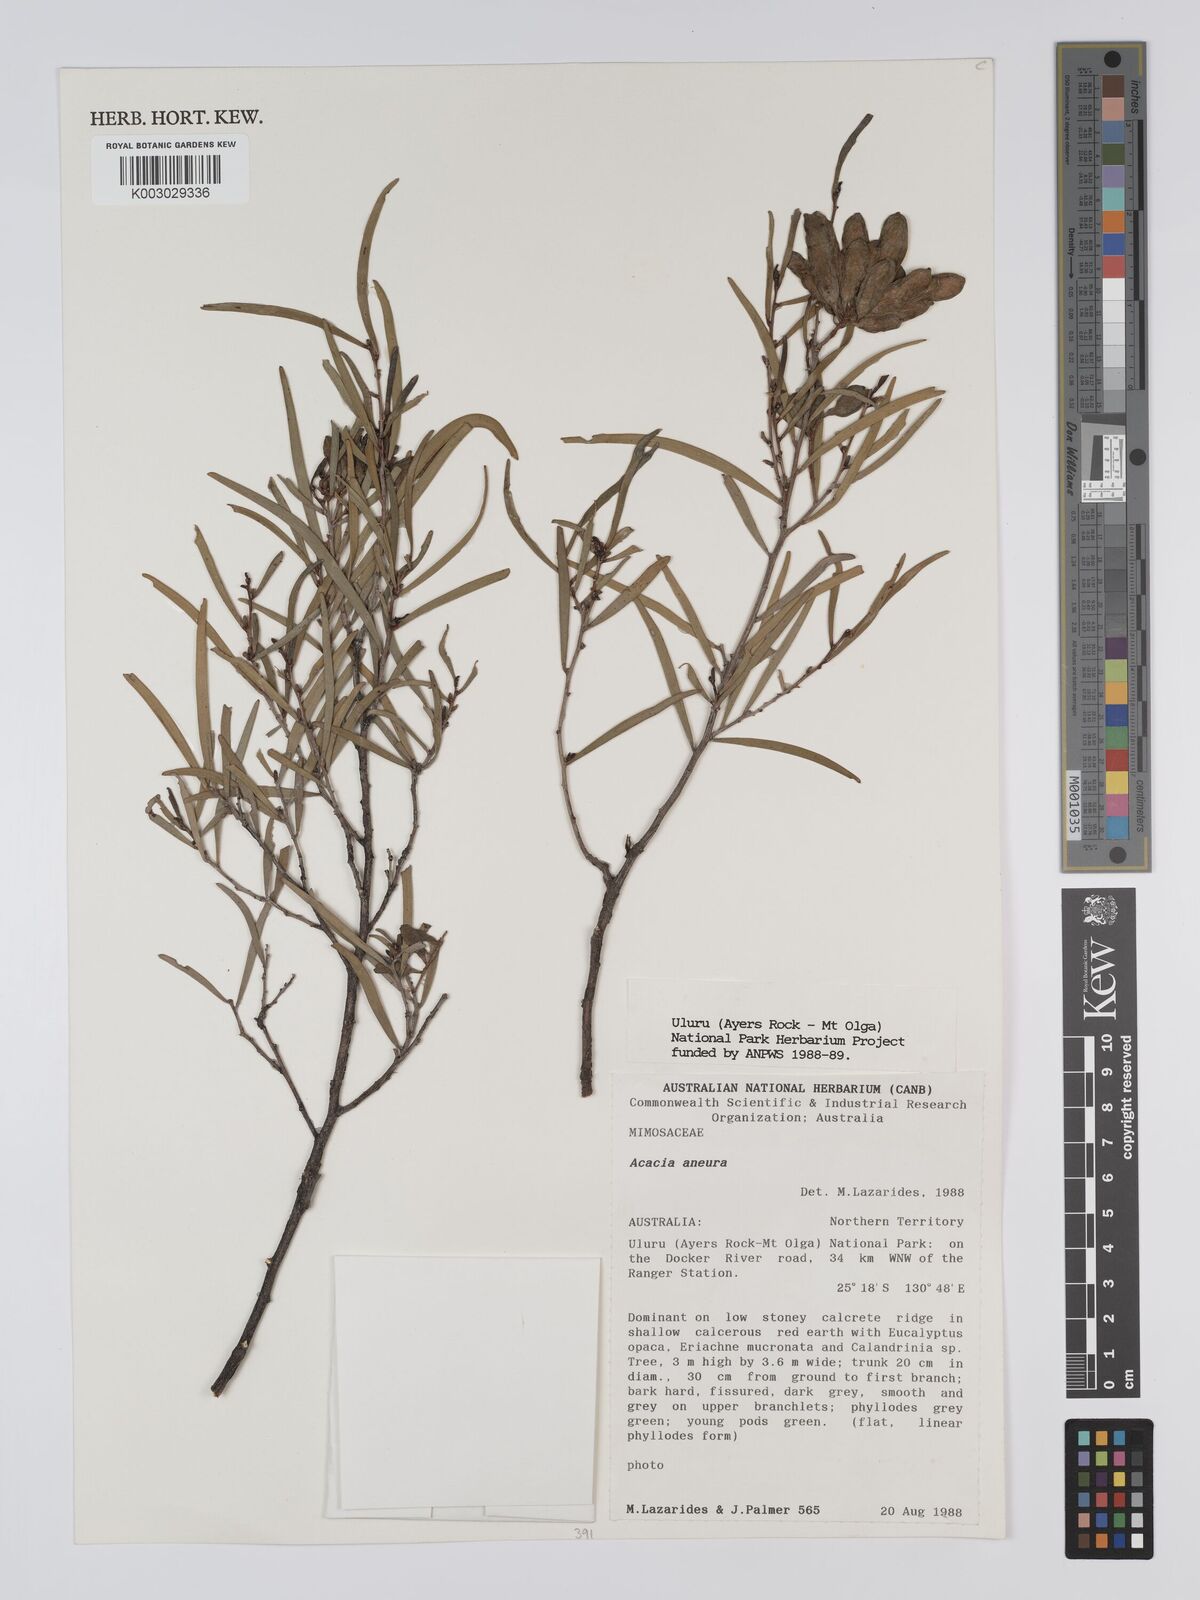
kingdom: Plantae
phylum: Tracheophyta
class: Magnoliopsida
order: Fabales
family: Fabaceae
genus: Acacia
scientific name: Acacia aneura
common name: Mulga
